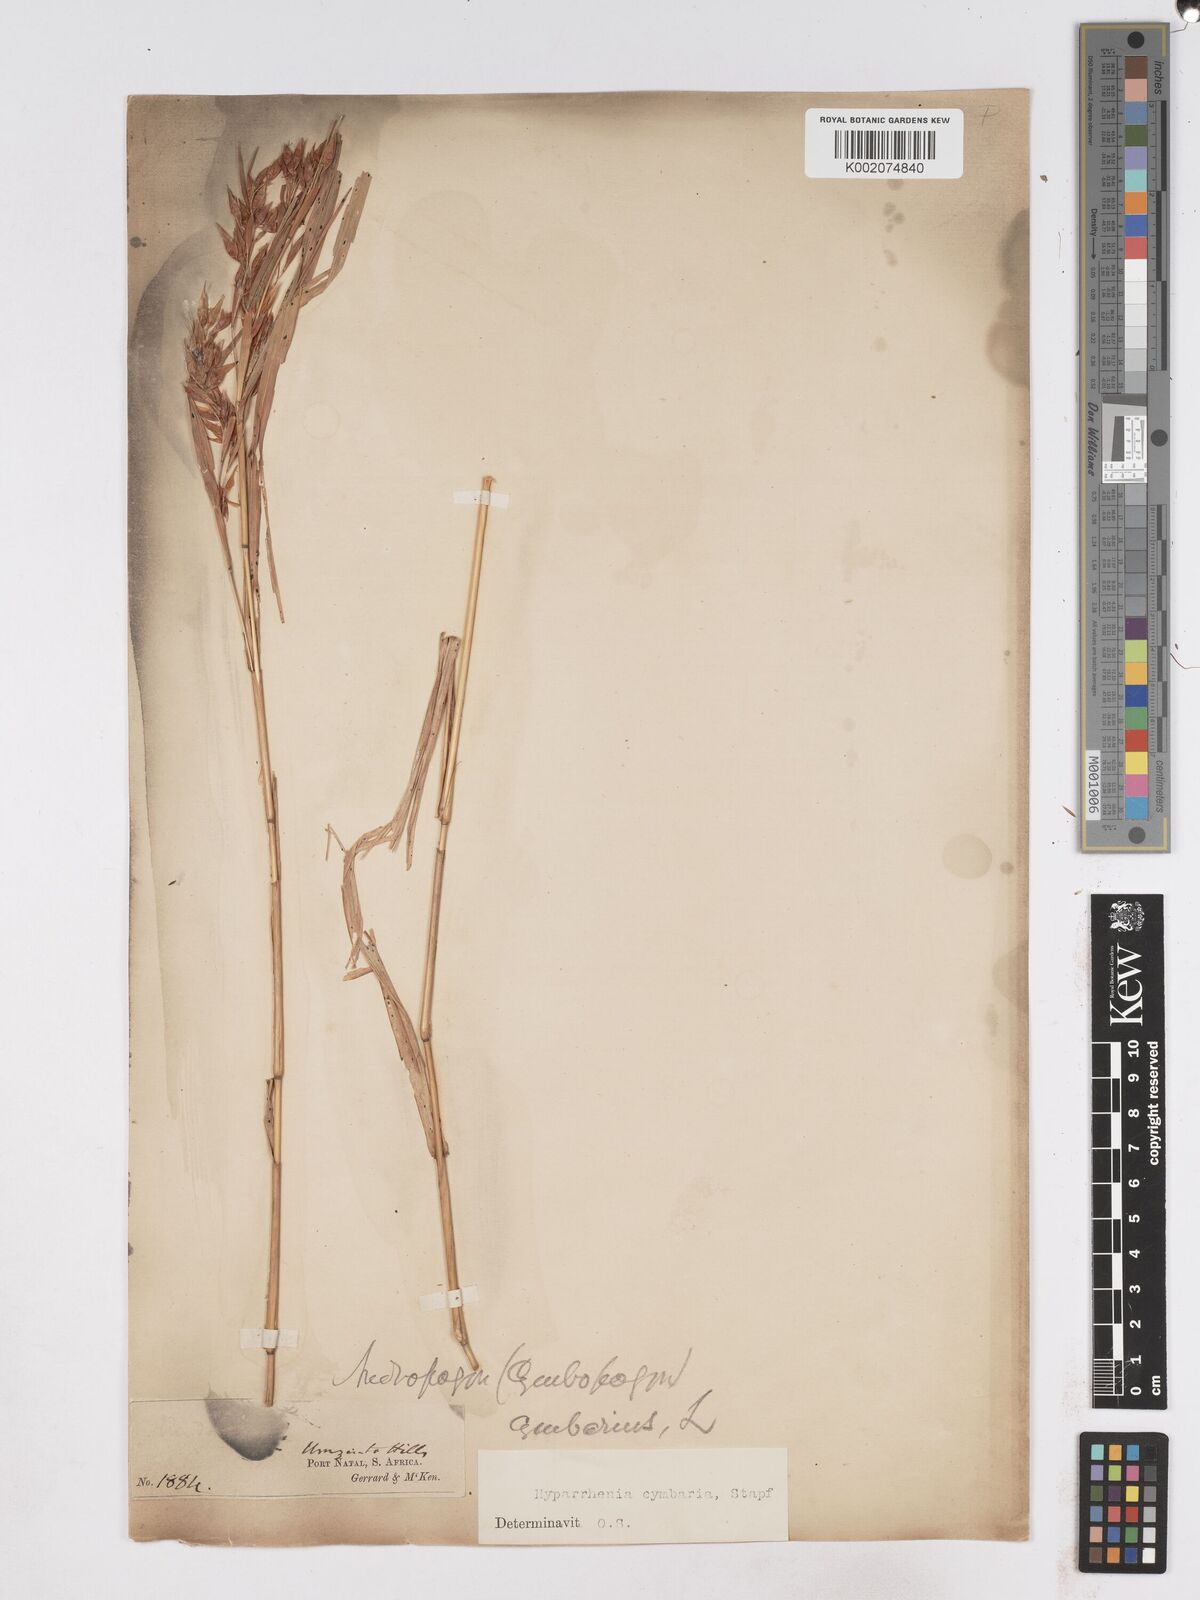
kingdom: Plantae
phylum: Tracheophyta
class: Liliopsida
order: Poales
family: Poaceae
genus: Hyparrhenia
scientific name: Hyparrhenia cymbaria
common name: Boat thatching grass
